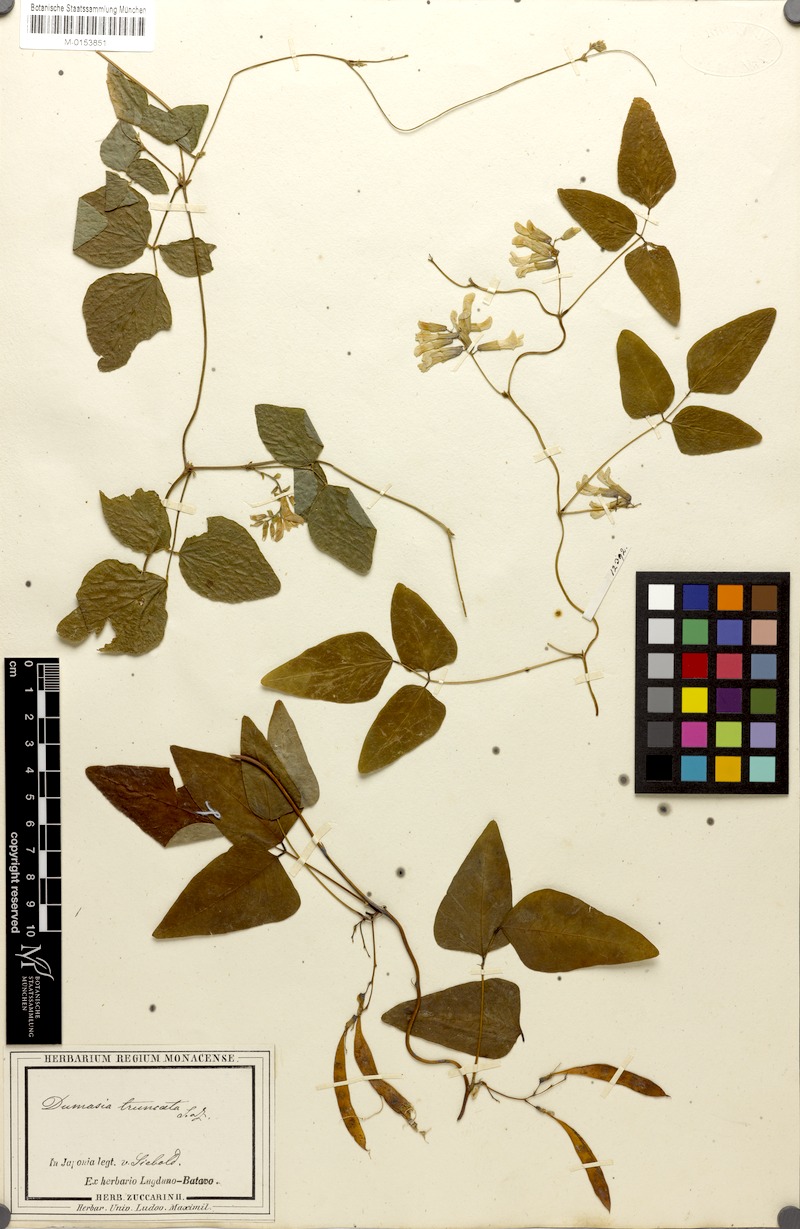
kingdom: Plantae
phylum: Tracheophyta
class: Magnoliopsida
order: Fabales
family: Fabaceae
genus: Dumasia
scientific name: Dumasia truncata
